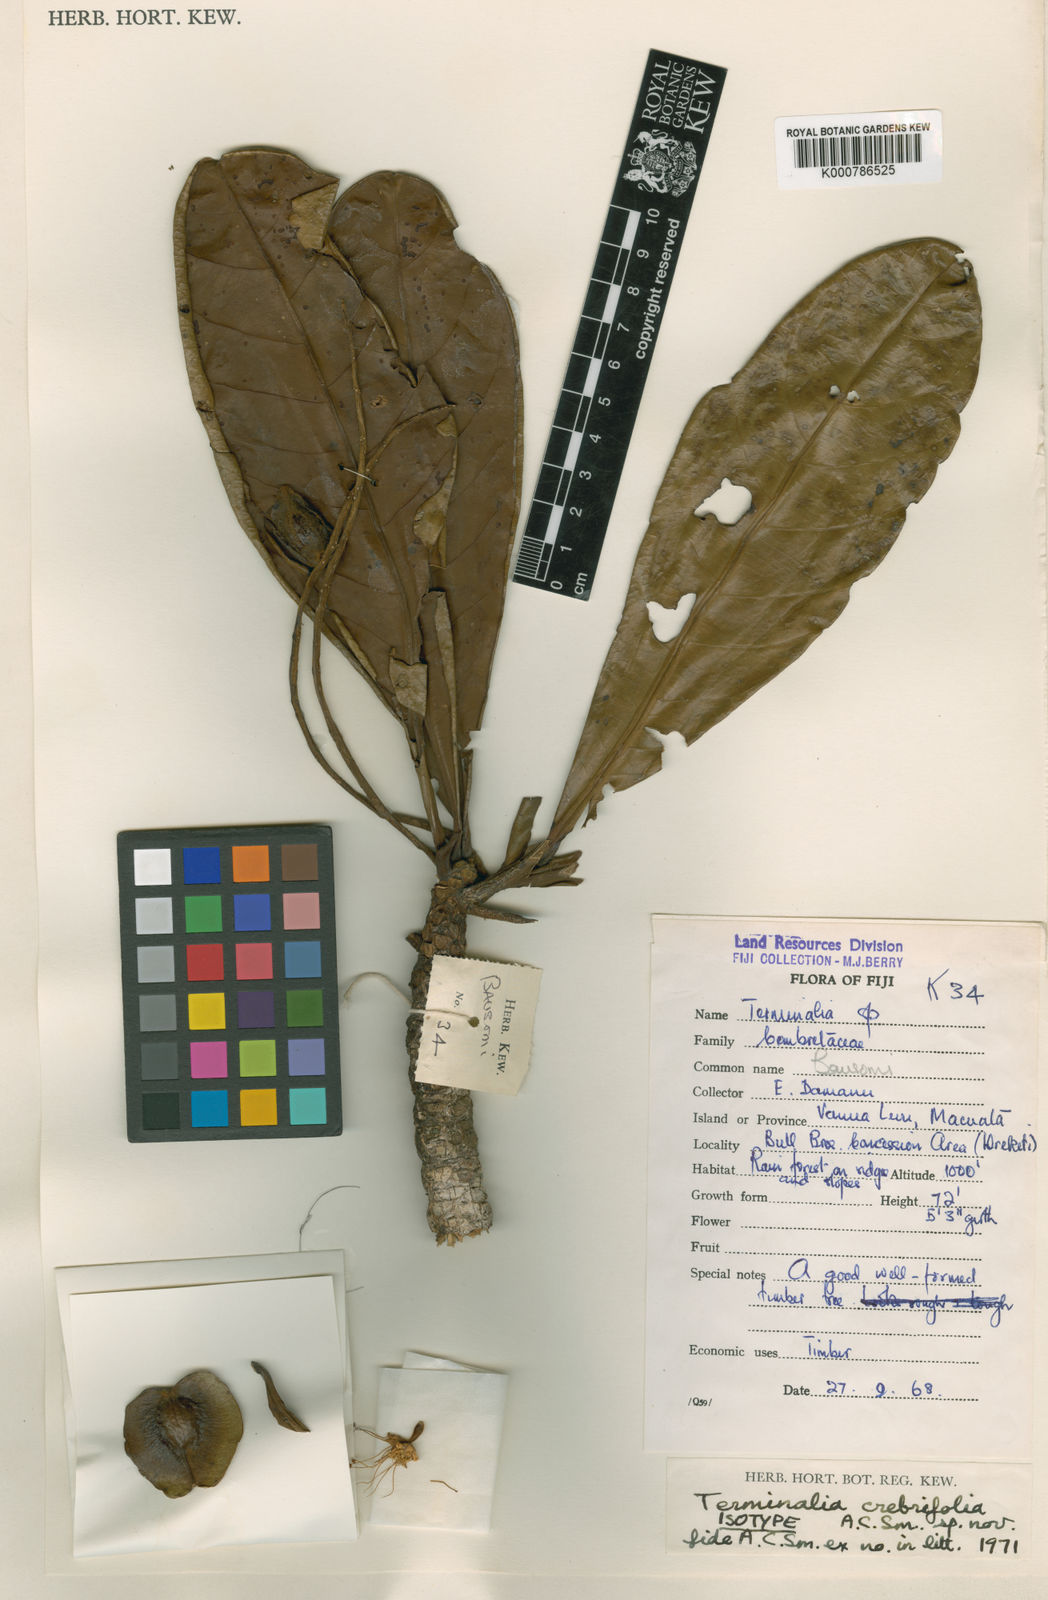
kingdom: Plantae
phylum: Tracheophyta
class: Magnoliopsida
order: Myrtales
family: Combretaceae
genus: Terminalia
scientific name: Terminalia crebrifolia
